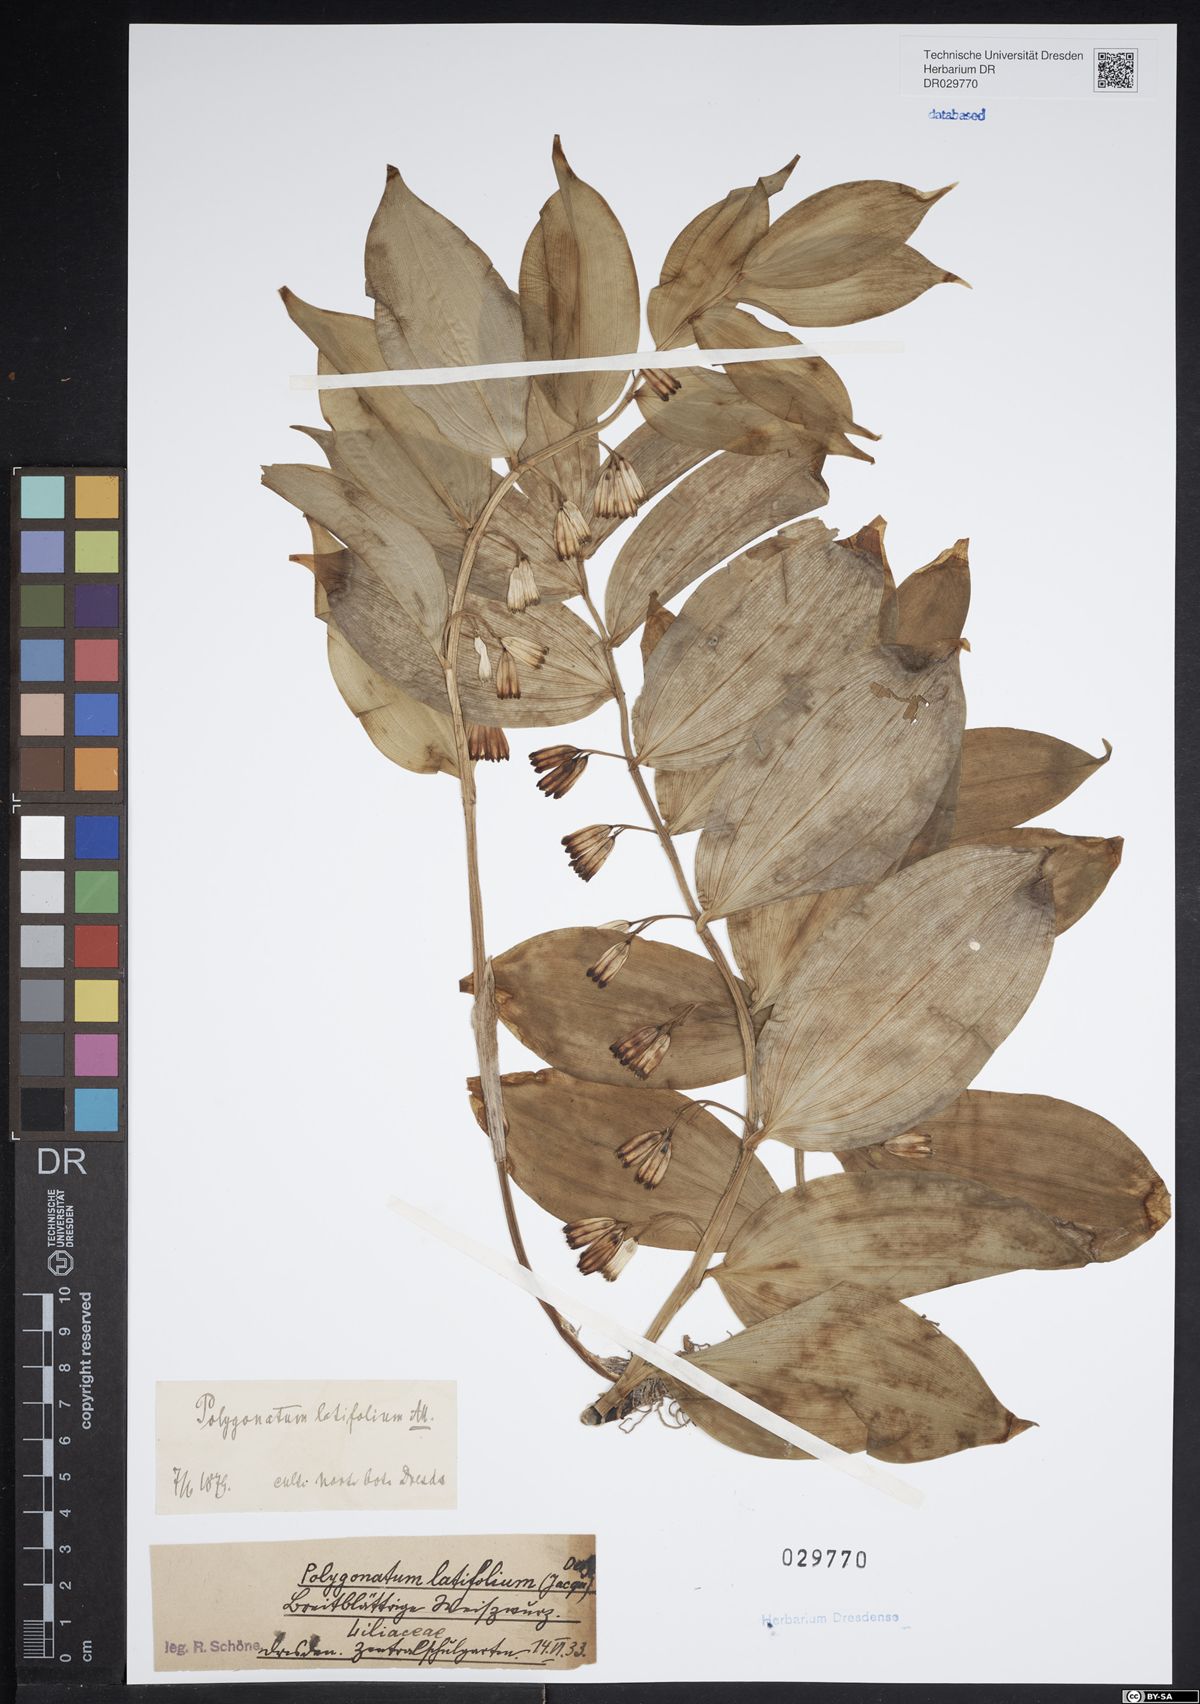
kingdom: Plantae
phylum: Tracheophyta
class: Liliopsida
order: Asparagales
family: Asparagaceae
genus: Polygonatum
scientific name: Polygonatum latifolium
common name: Broadleaf solomon's seal
